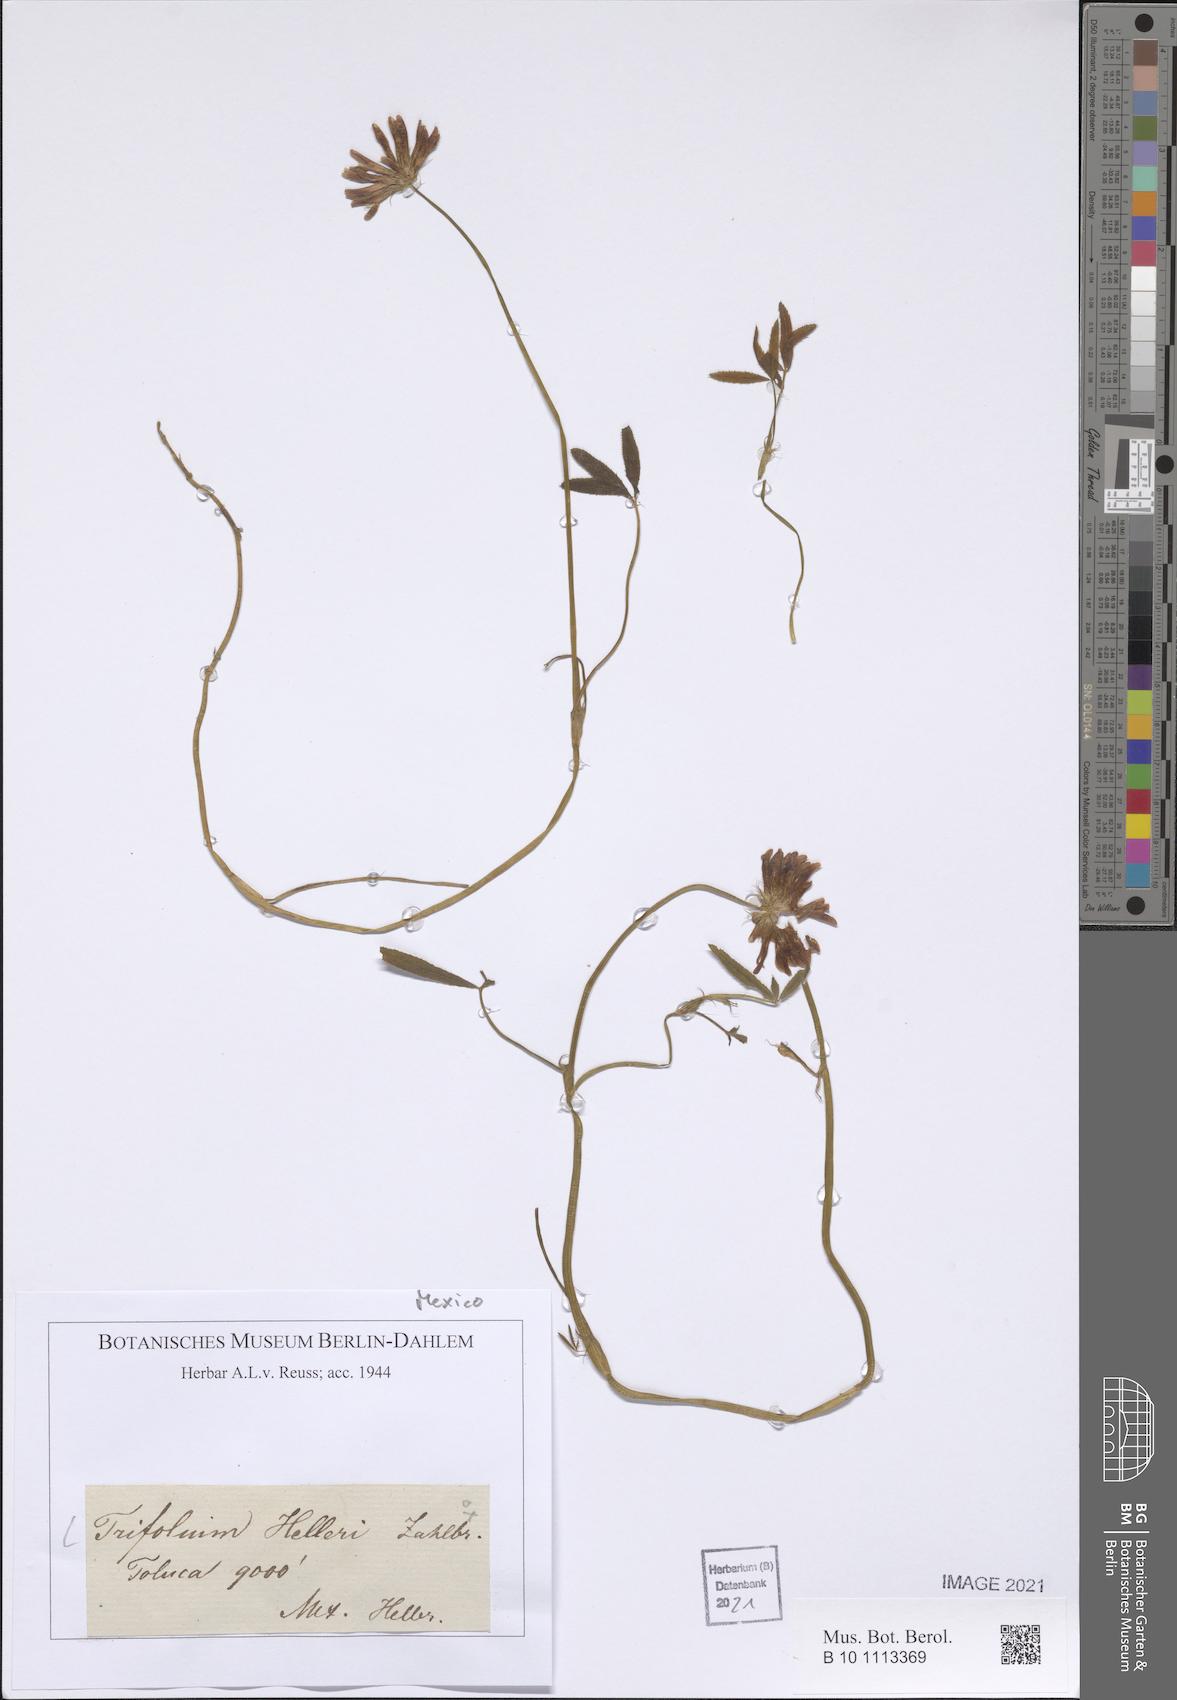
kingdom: Plantae
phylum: Tracheophyta
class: Magnoliopsida
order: Fabales
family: Fabaceae
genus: Trifolium
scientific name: Trifolium albopurpureum
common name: Rancheria clover
